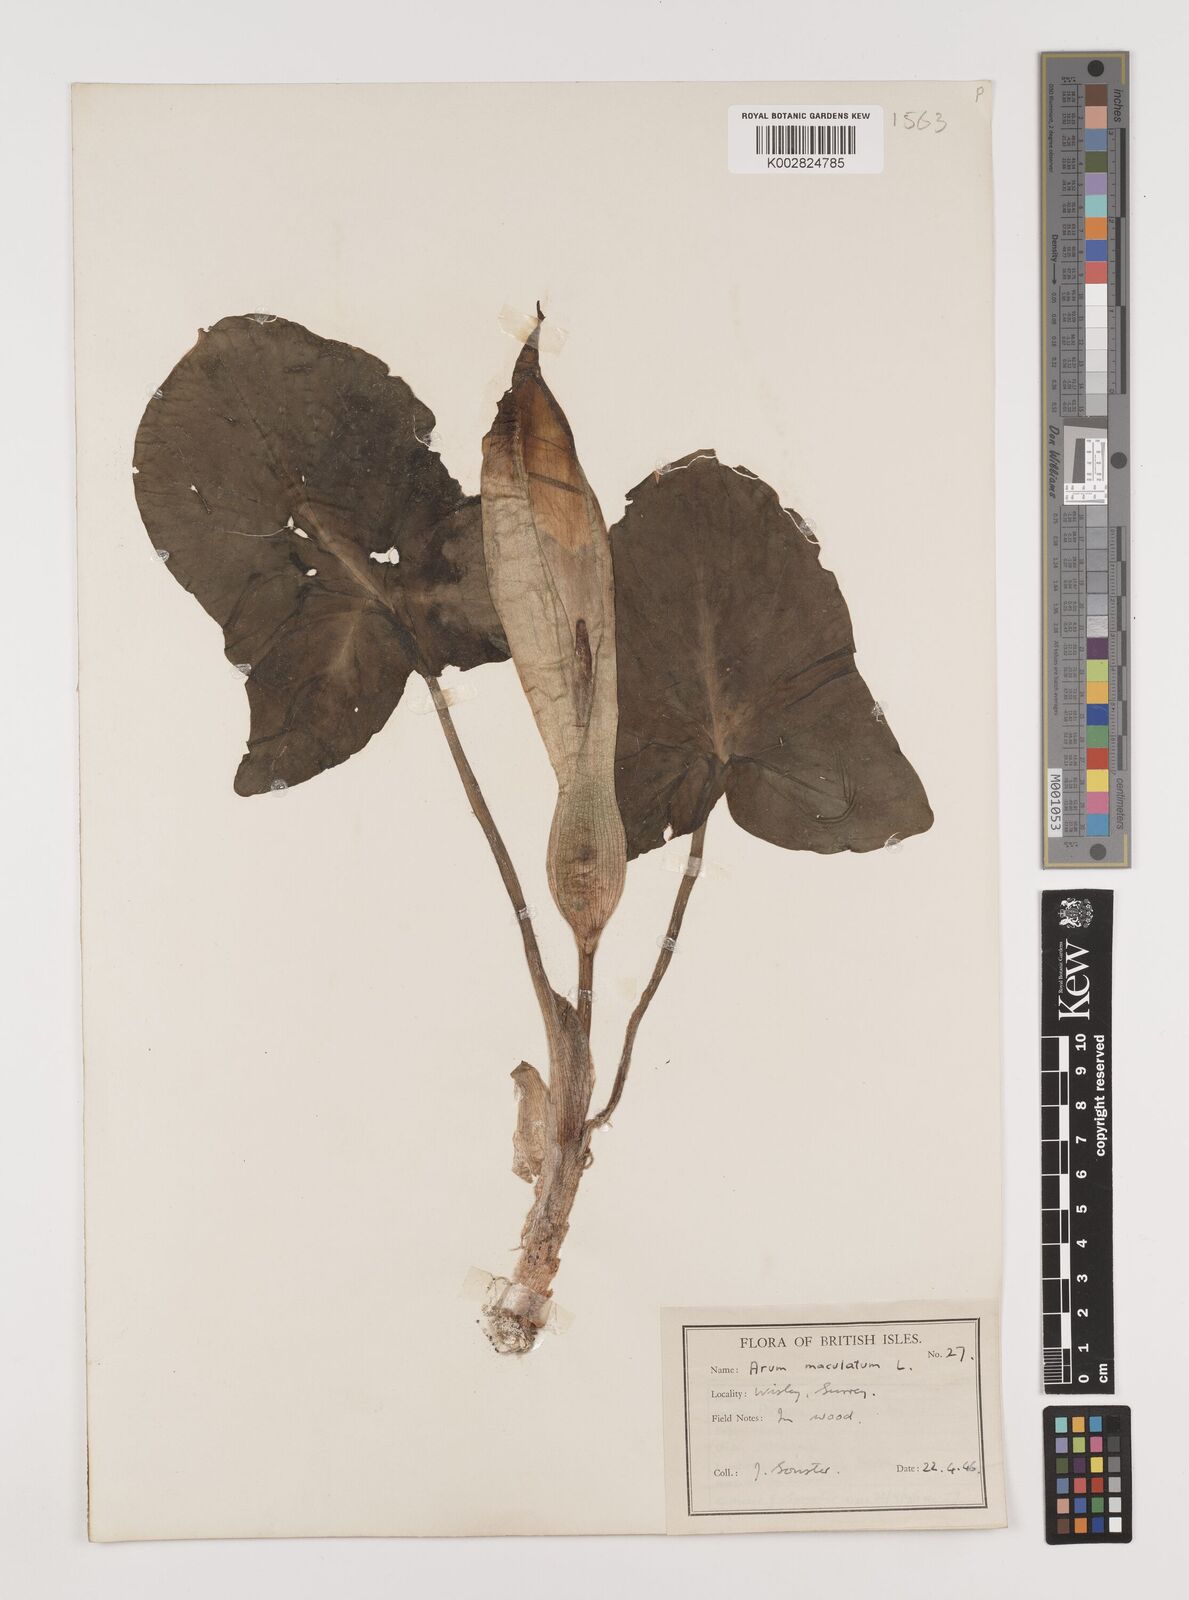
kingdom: Plantae
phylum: Tracheophyta
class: Liliopsida
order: Alismatales
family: Araceae
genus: Arum
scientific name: Arum maculatum
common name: Lords-and-ladies
